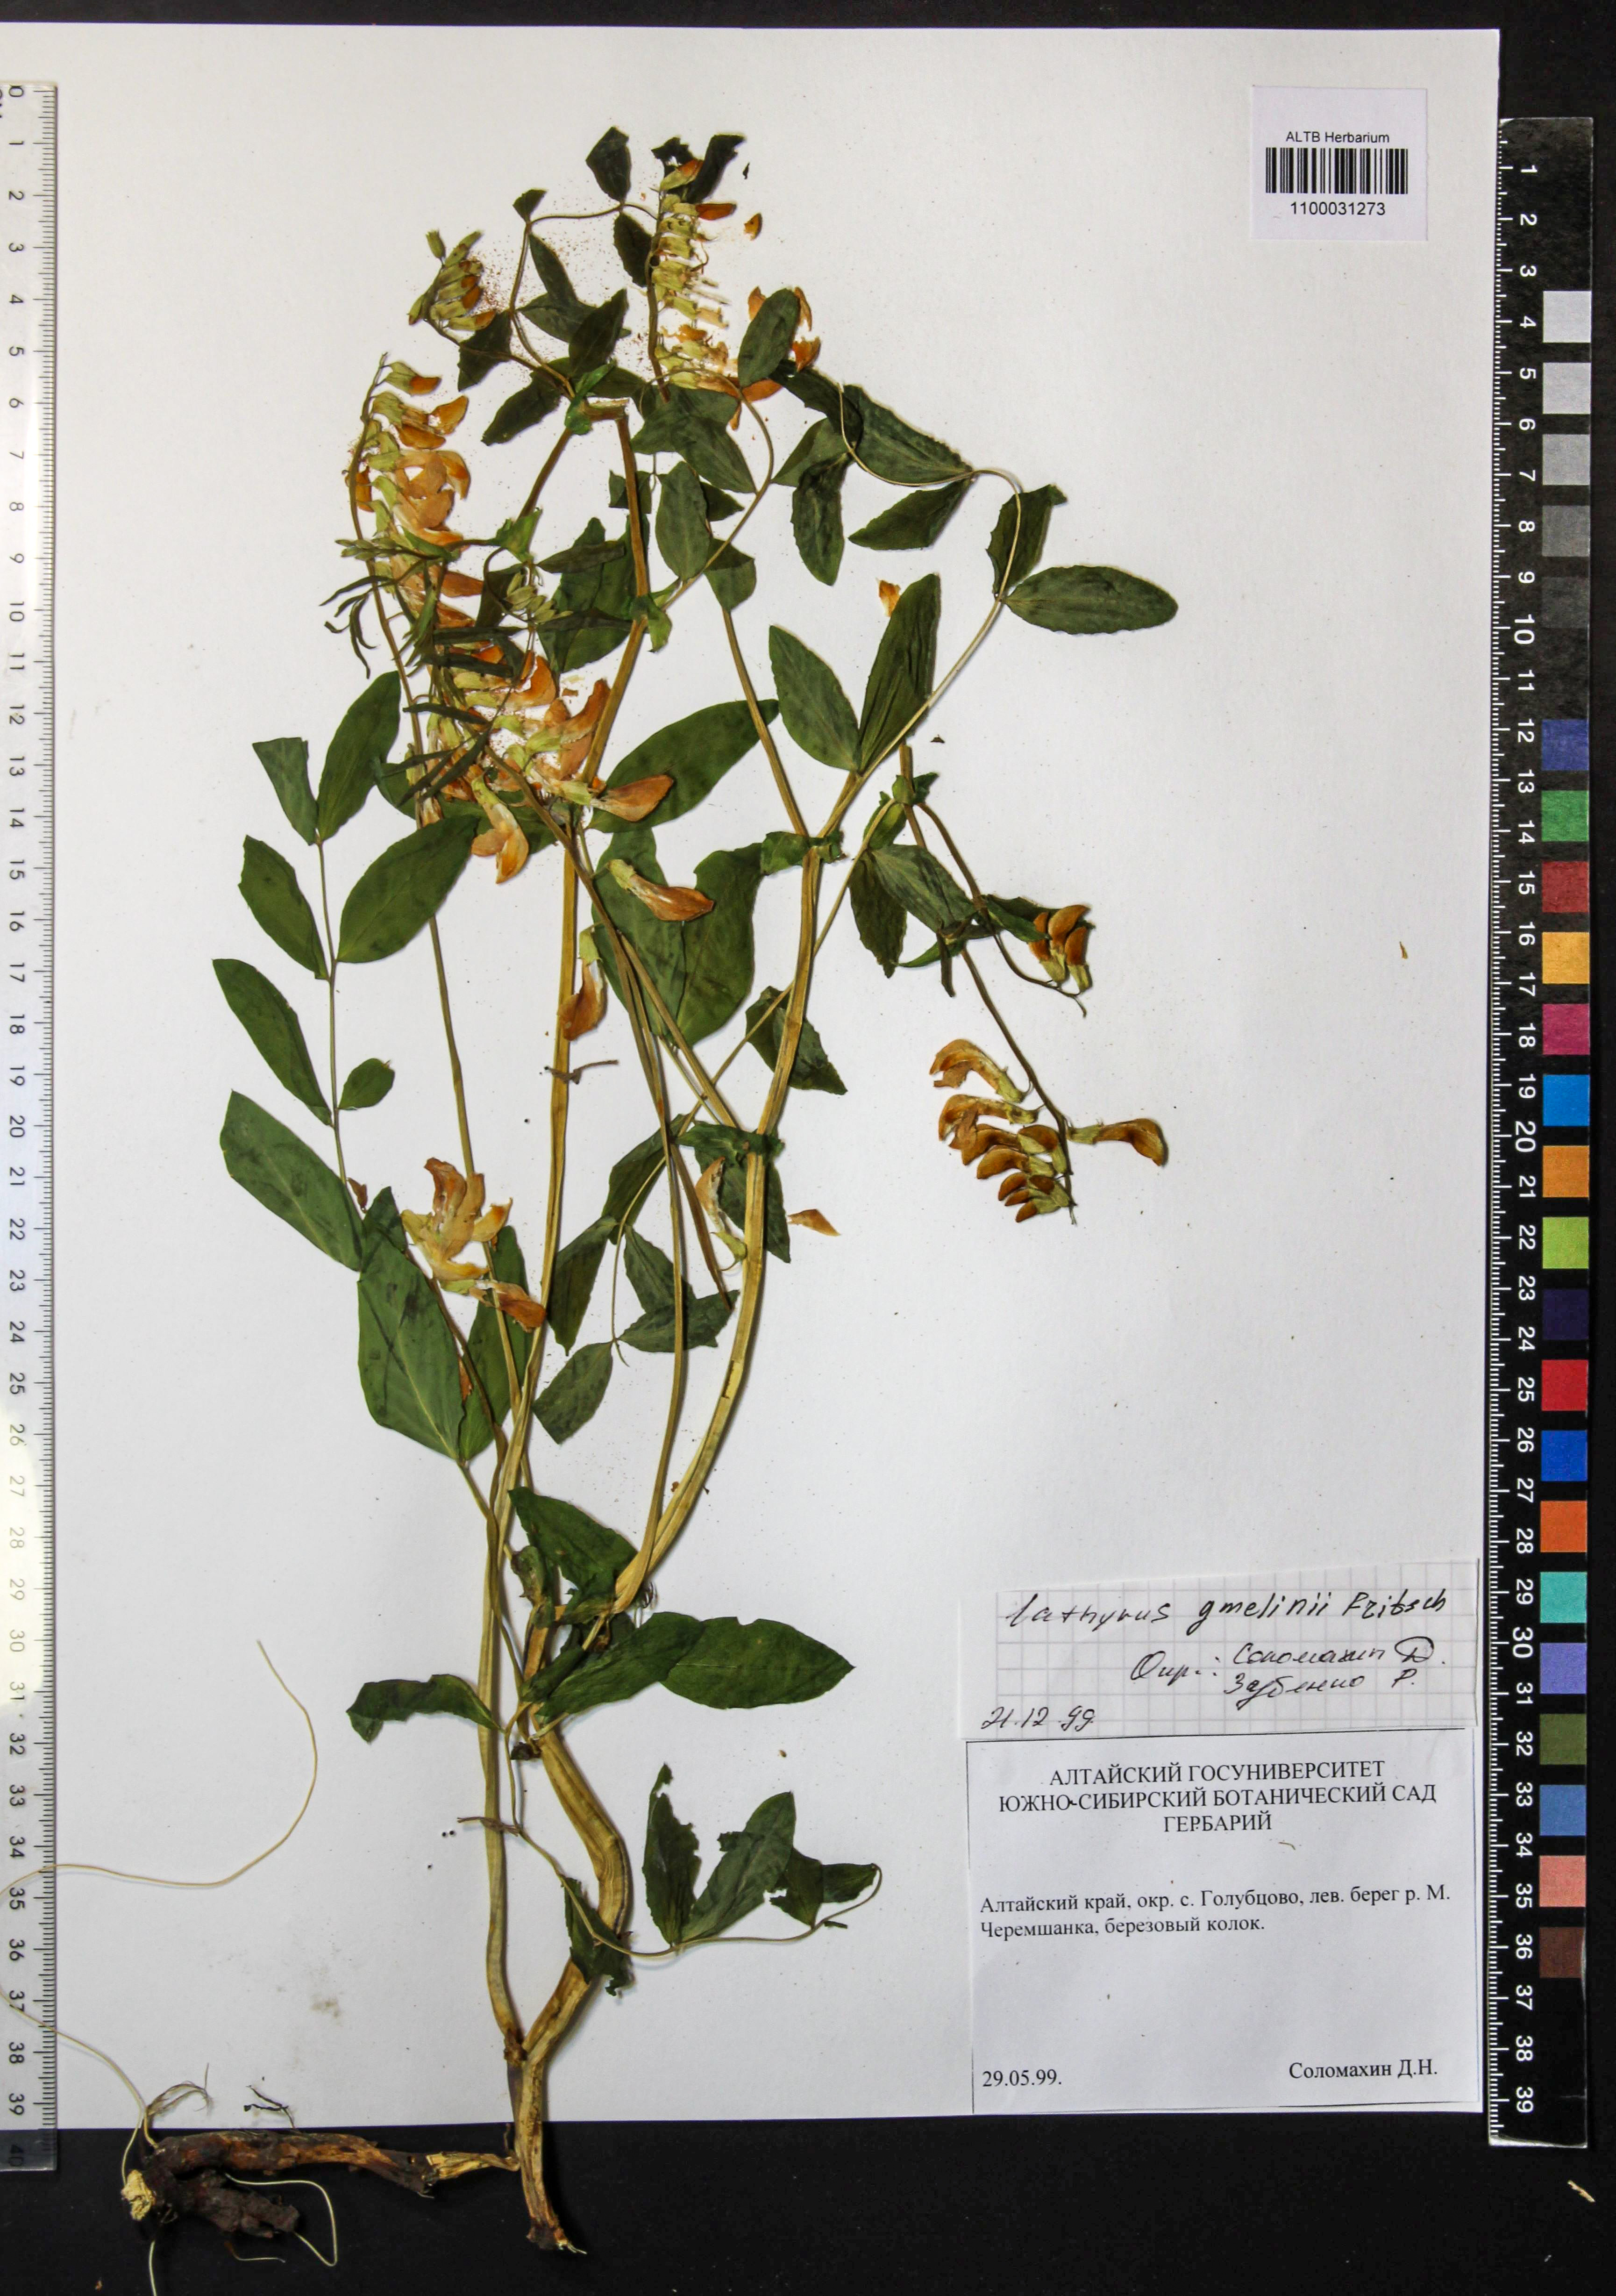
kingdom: Plantae
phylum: Tracheophyta
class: Magnoliopsida
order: Fabales
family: Fabaceae
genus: Lathyrus
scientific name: Lathyrus gmelinii
